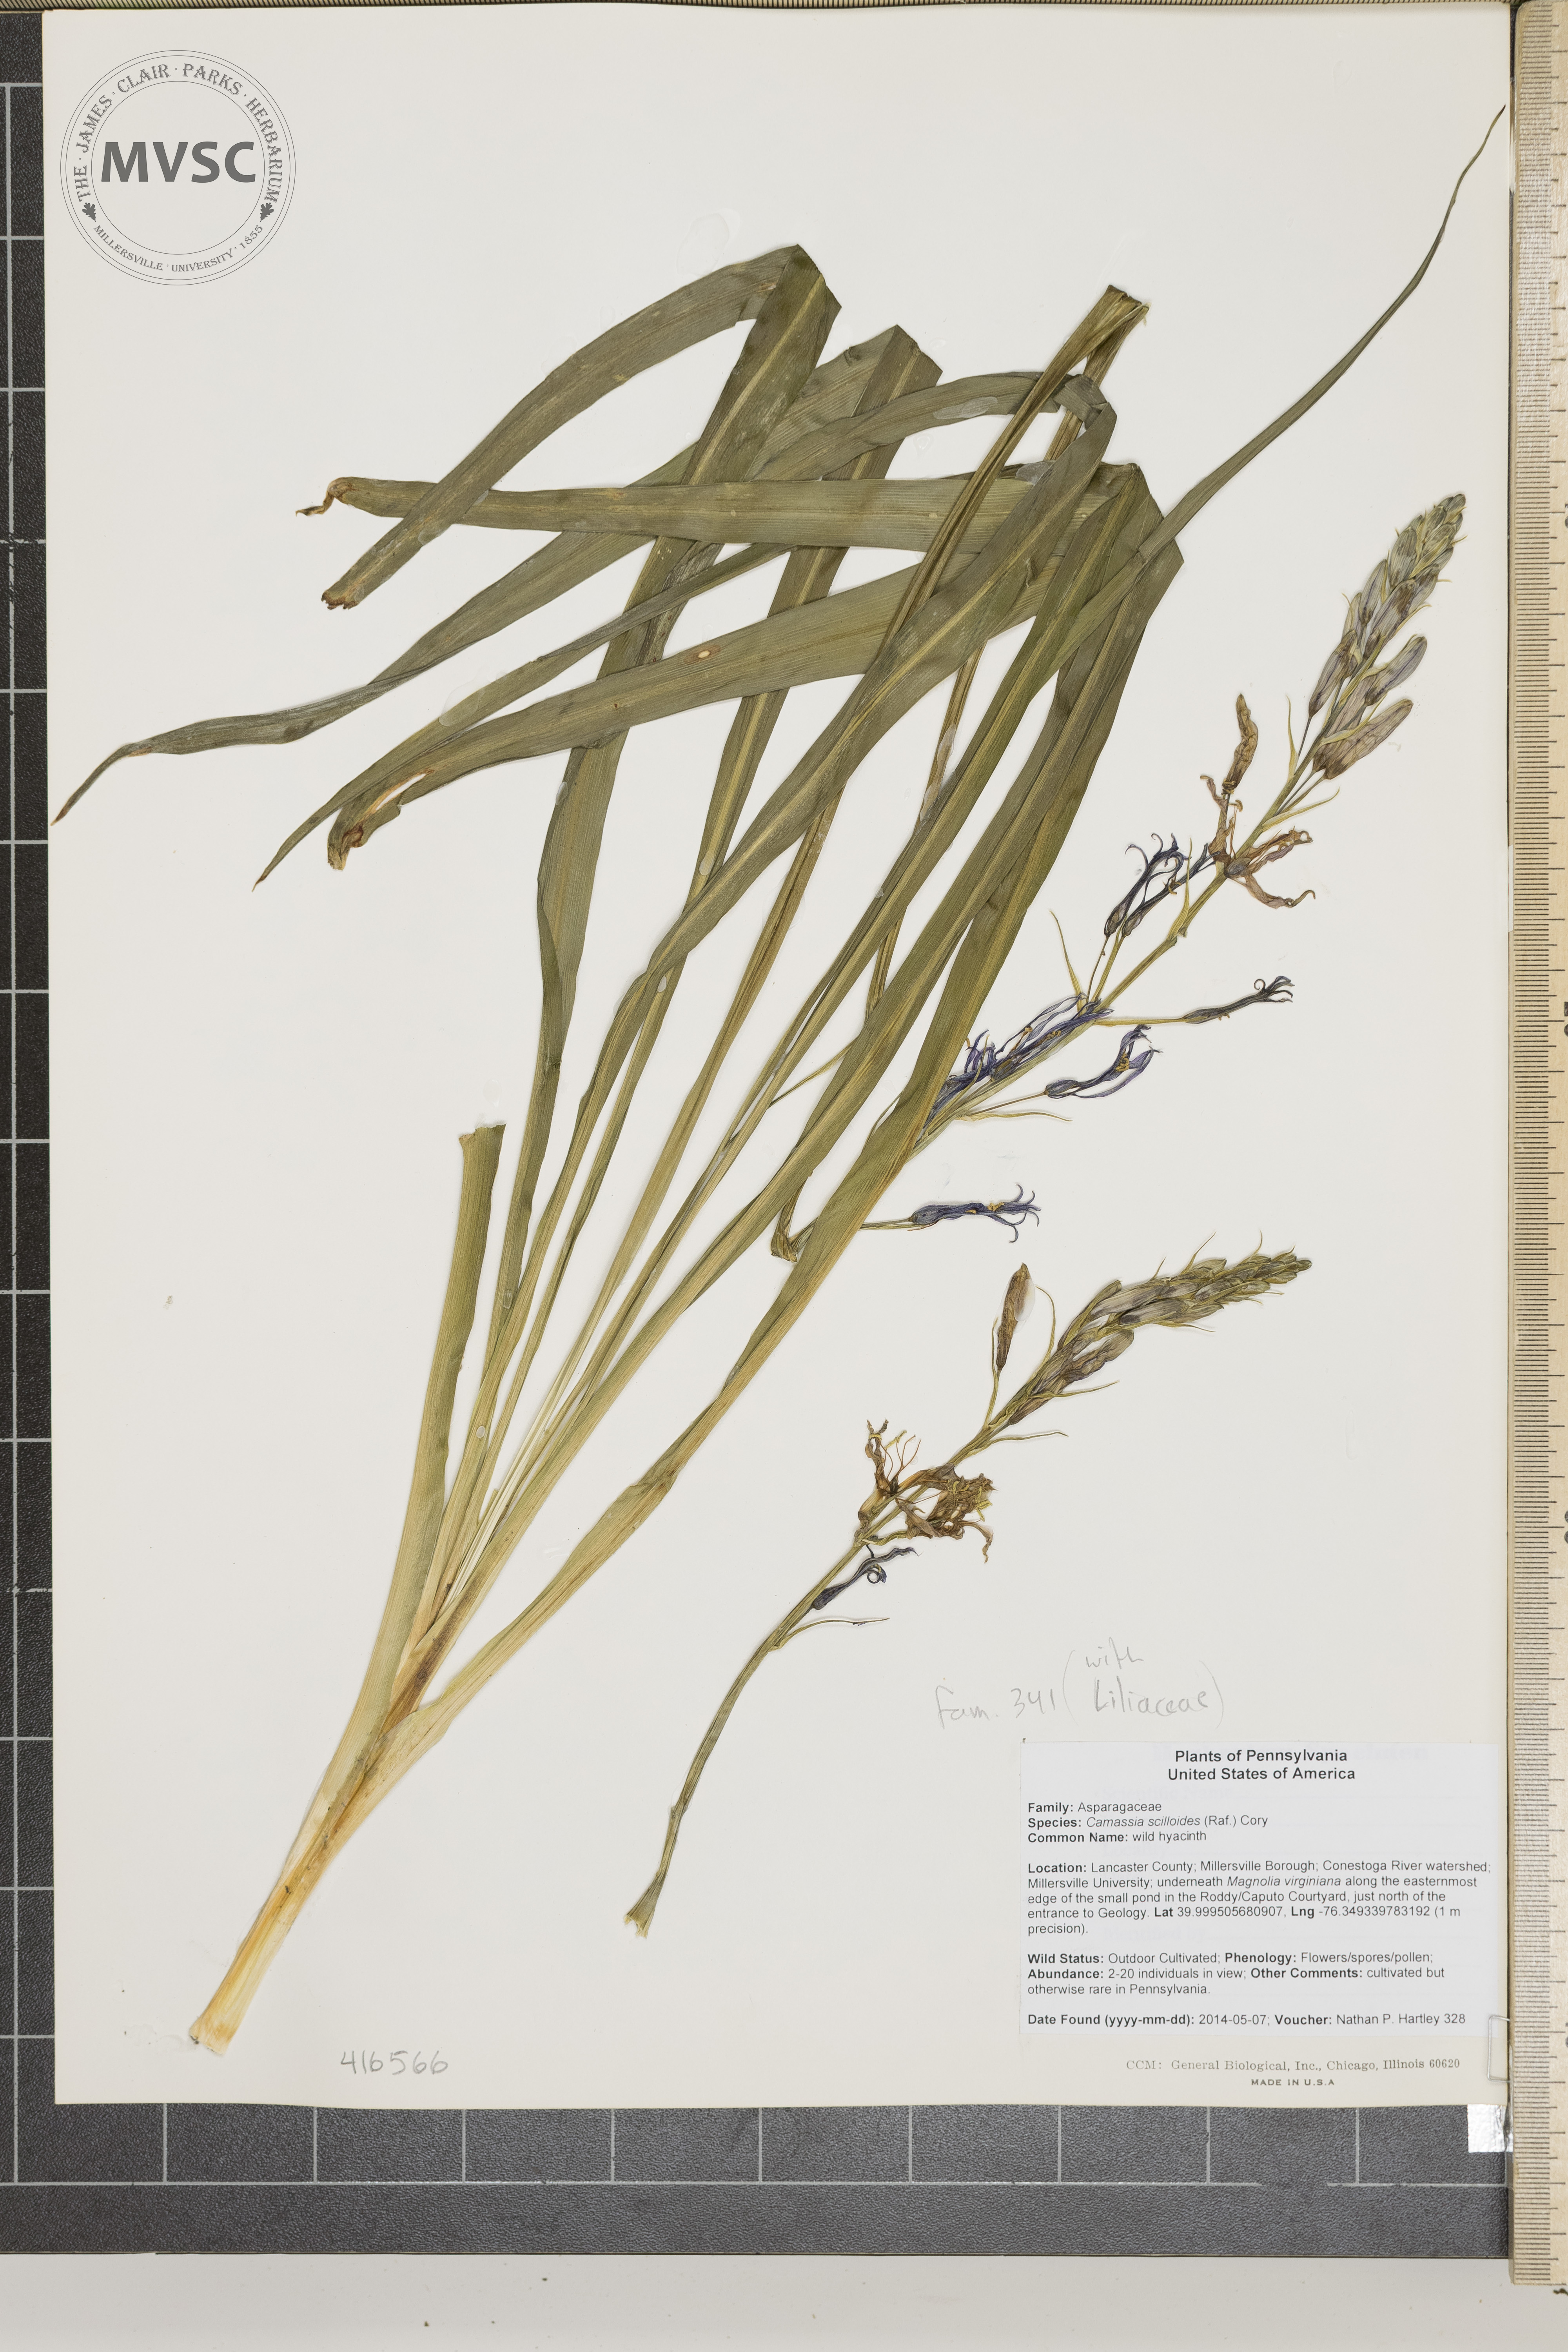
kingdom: Plantae
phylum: Tracheophyta
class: Liliopsida
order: Asparagales
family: Asparagaceae
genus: Camassia
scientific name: Camassia scilloides
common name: wild hyacinth
